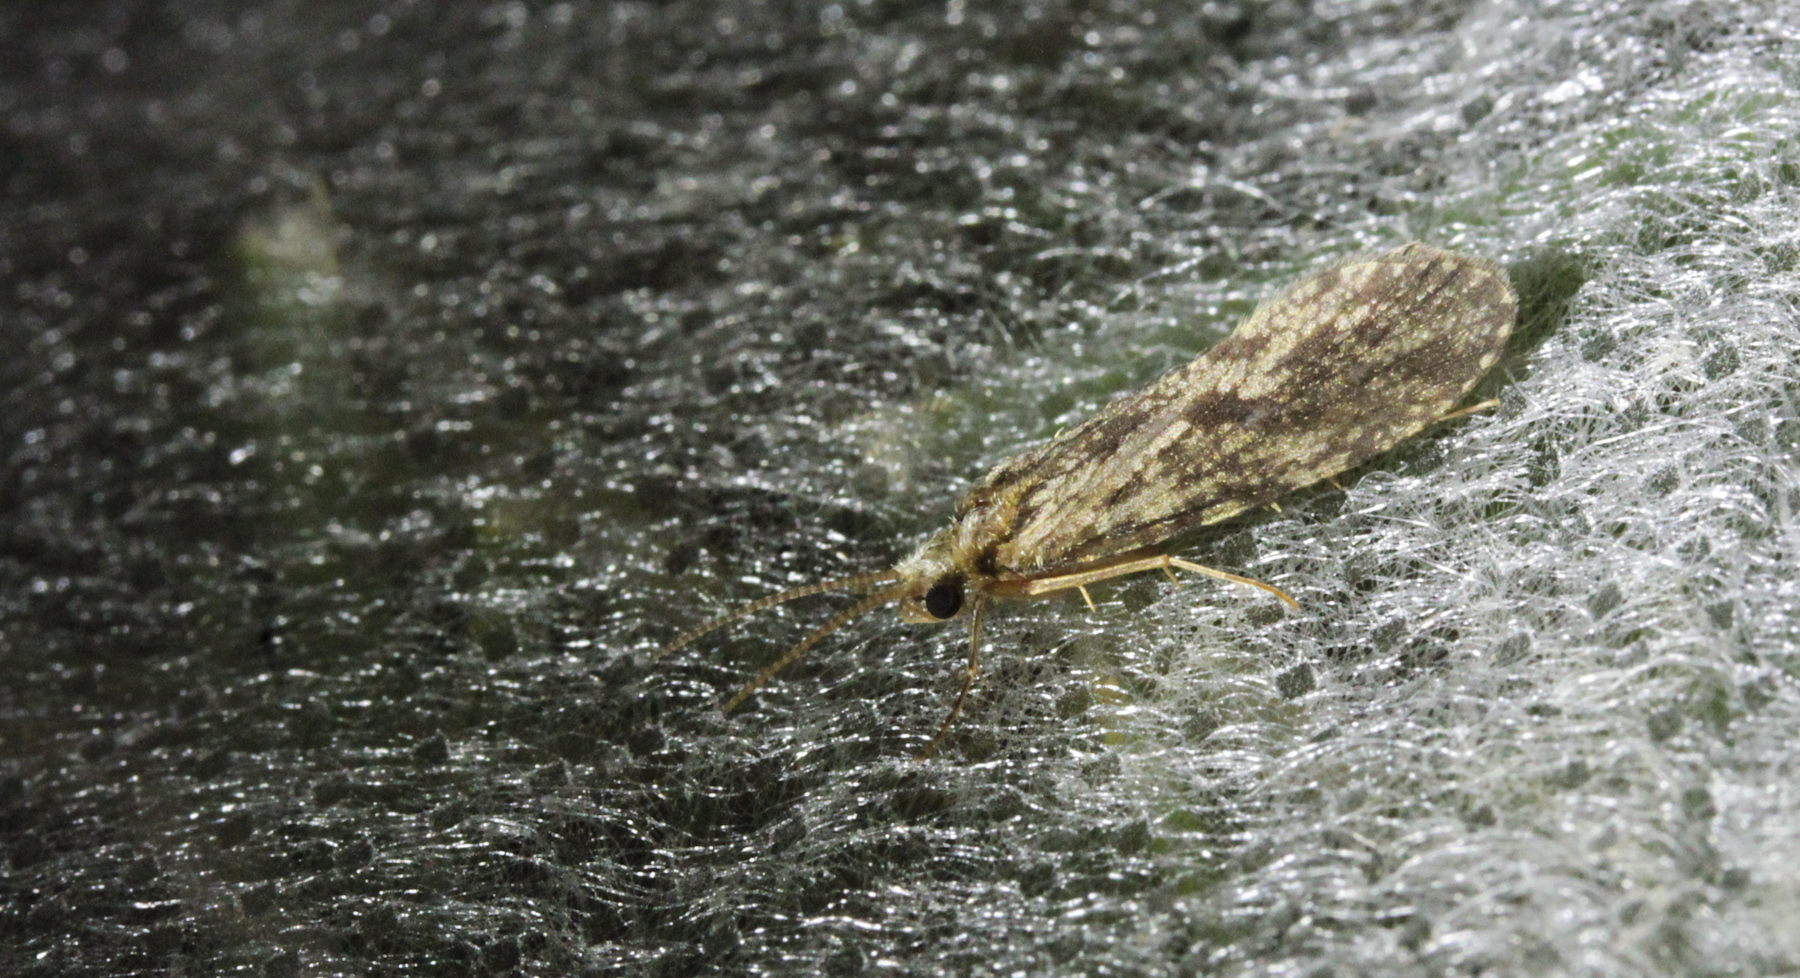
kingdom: Animalia
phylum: Arthropoda
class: Insecta
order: Trichoptera
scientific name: Trichoptera
